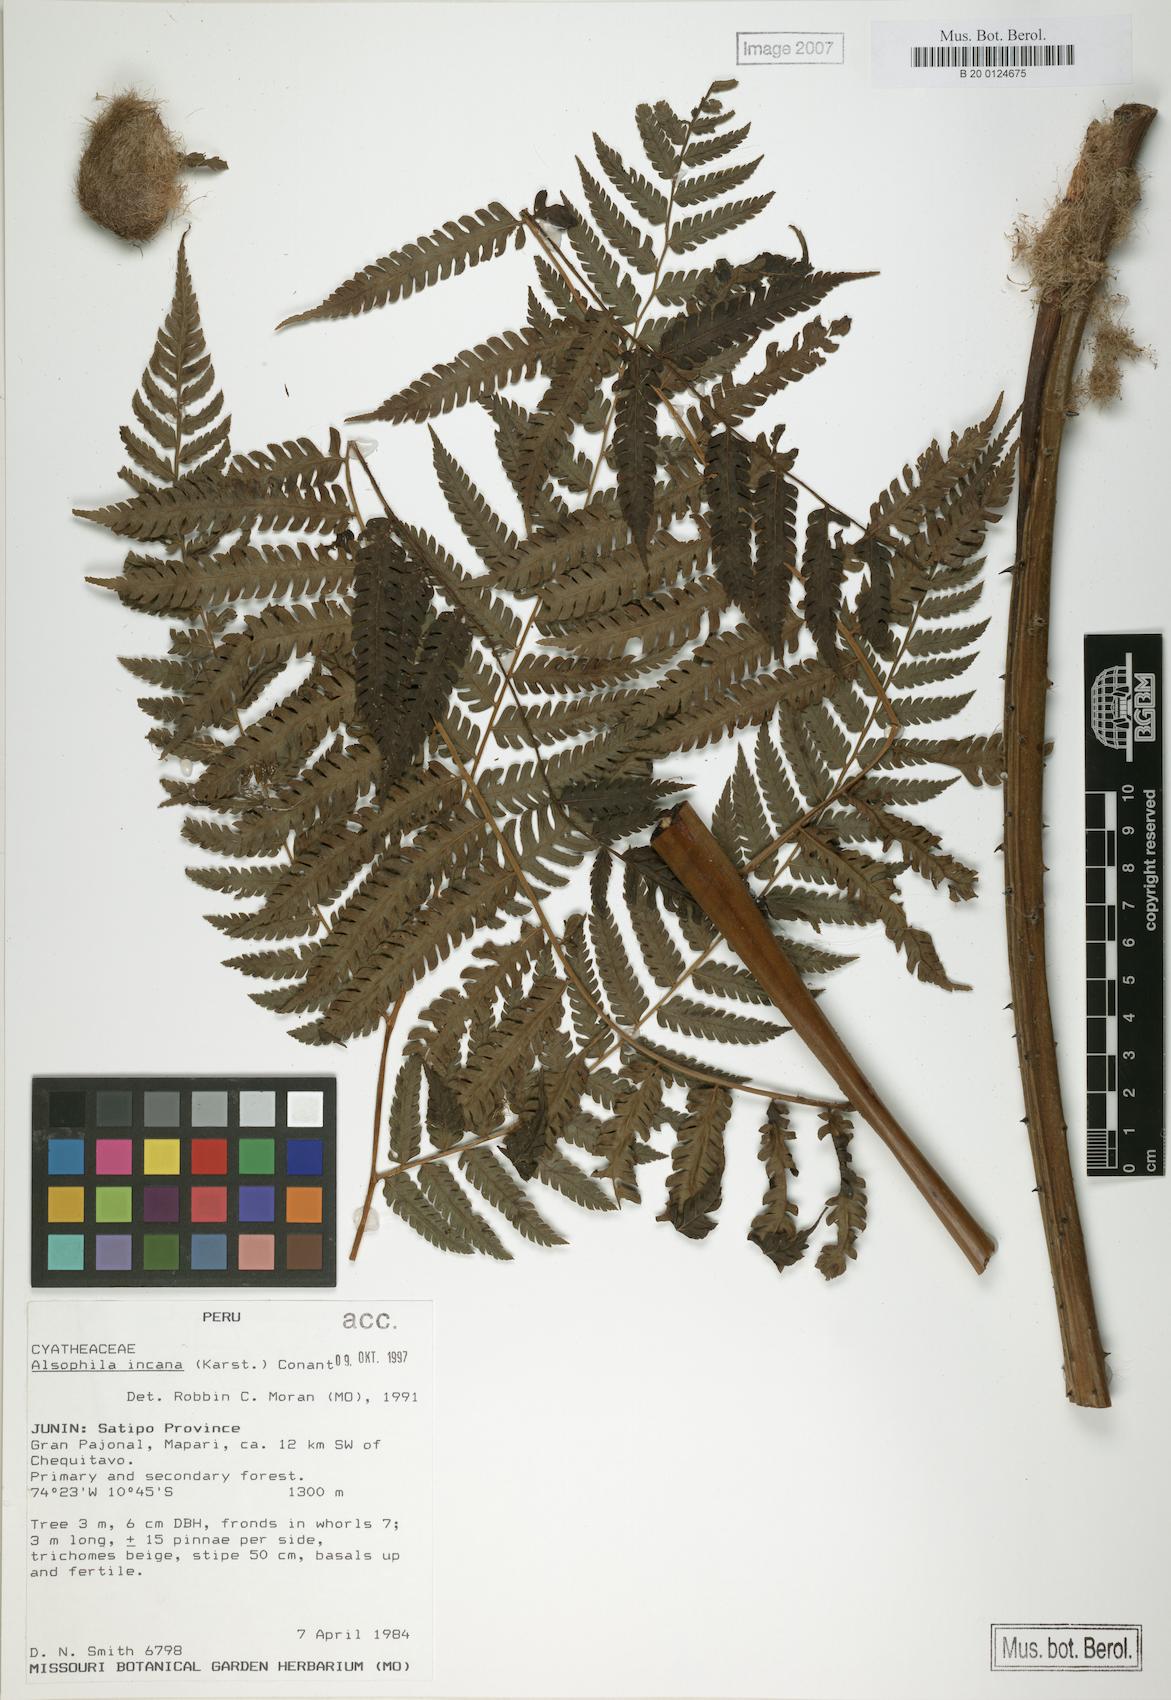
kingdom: Plantae
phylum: Tracheophyta
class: Polypodiopsida
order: Cyatheales
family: Cyatheaceae
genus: Alsophila
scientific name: Alsophila incana
